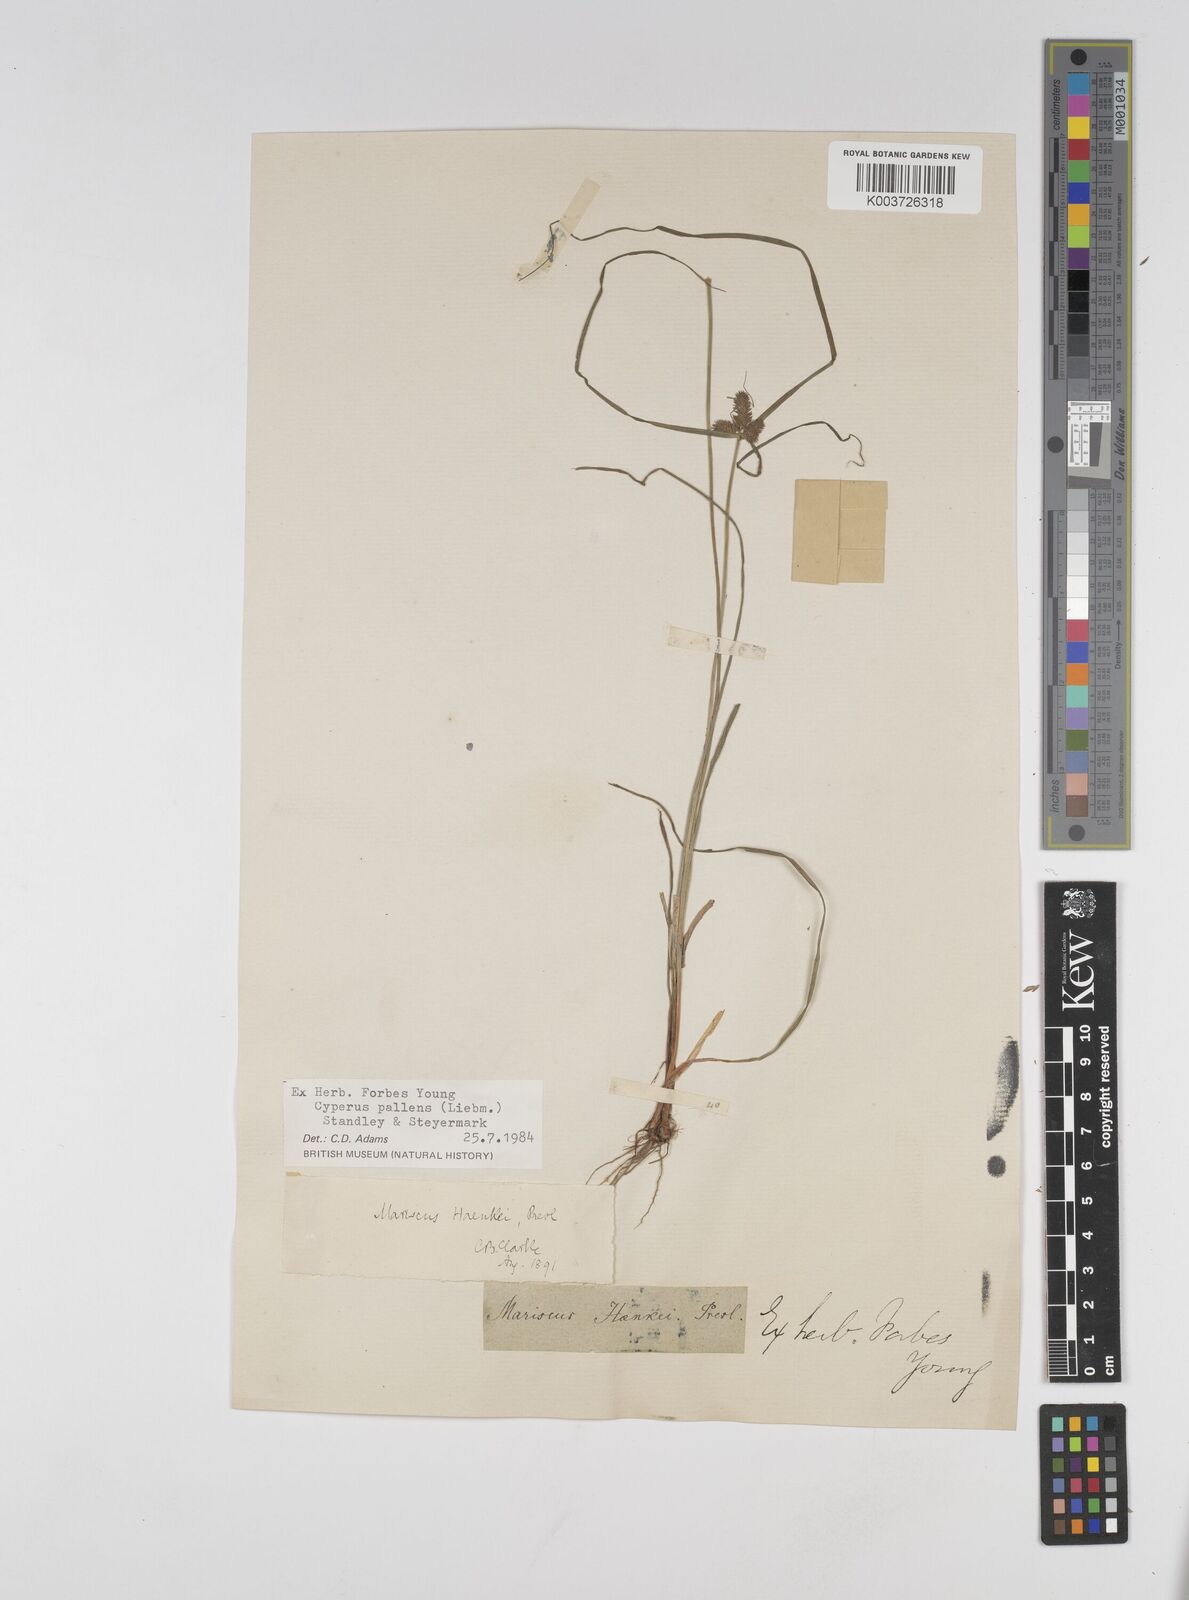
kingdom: Plantae
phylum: Tracheophyta
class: Liliopsida
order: Poales
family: Cyperaceae
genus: Cyperus
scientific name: Cyperus regiomontanus
